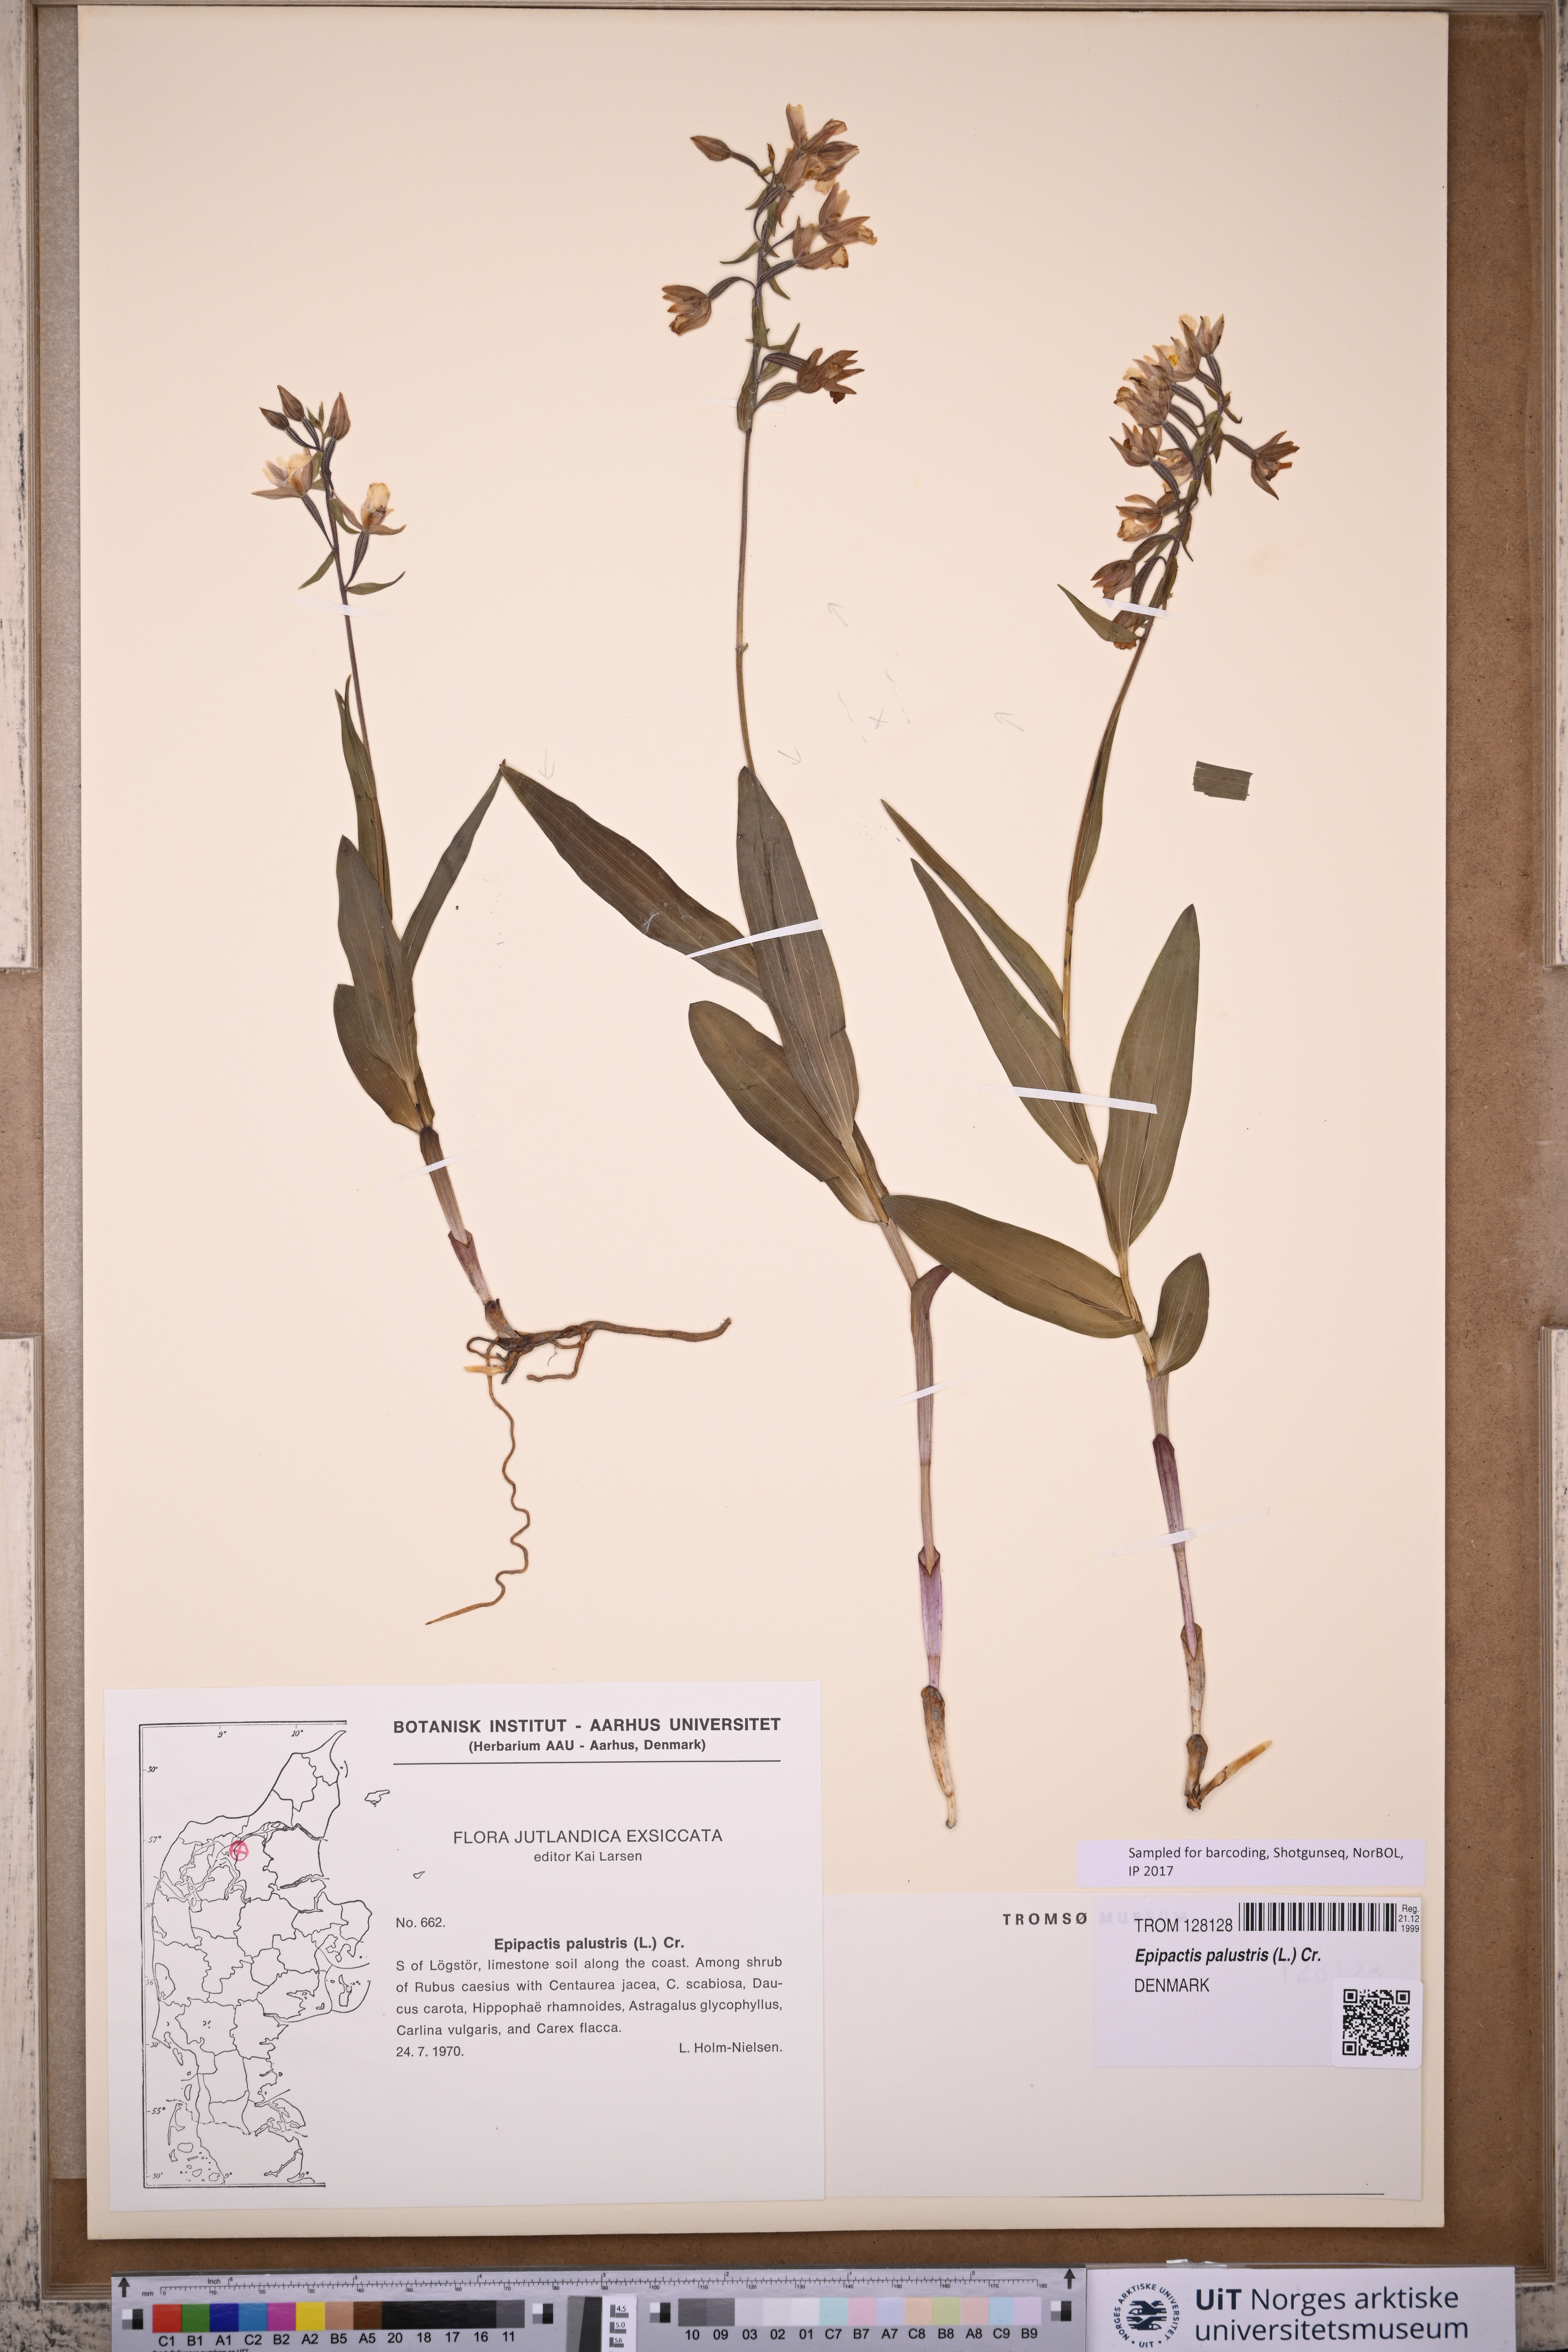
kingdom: Plantae
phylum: Tracheophyta
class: Liliopsida
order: Asparagales
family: Orchidaceae
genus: Epipactis
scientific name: Epipactis palustris
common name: Marsh helleborine
